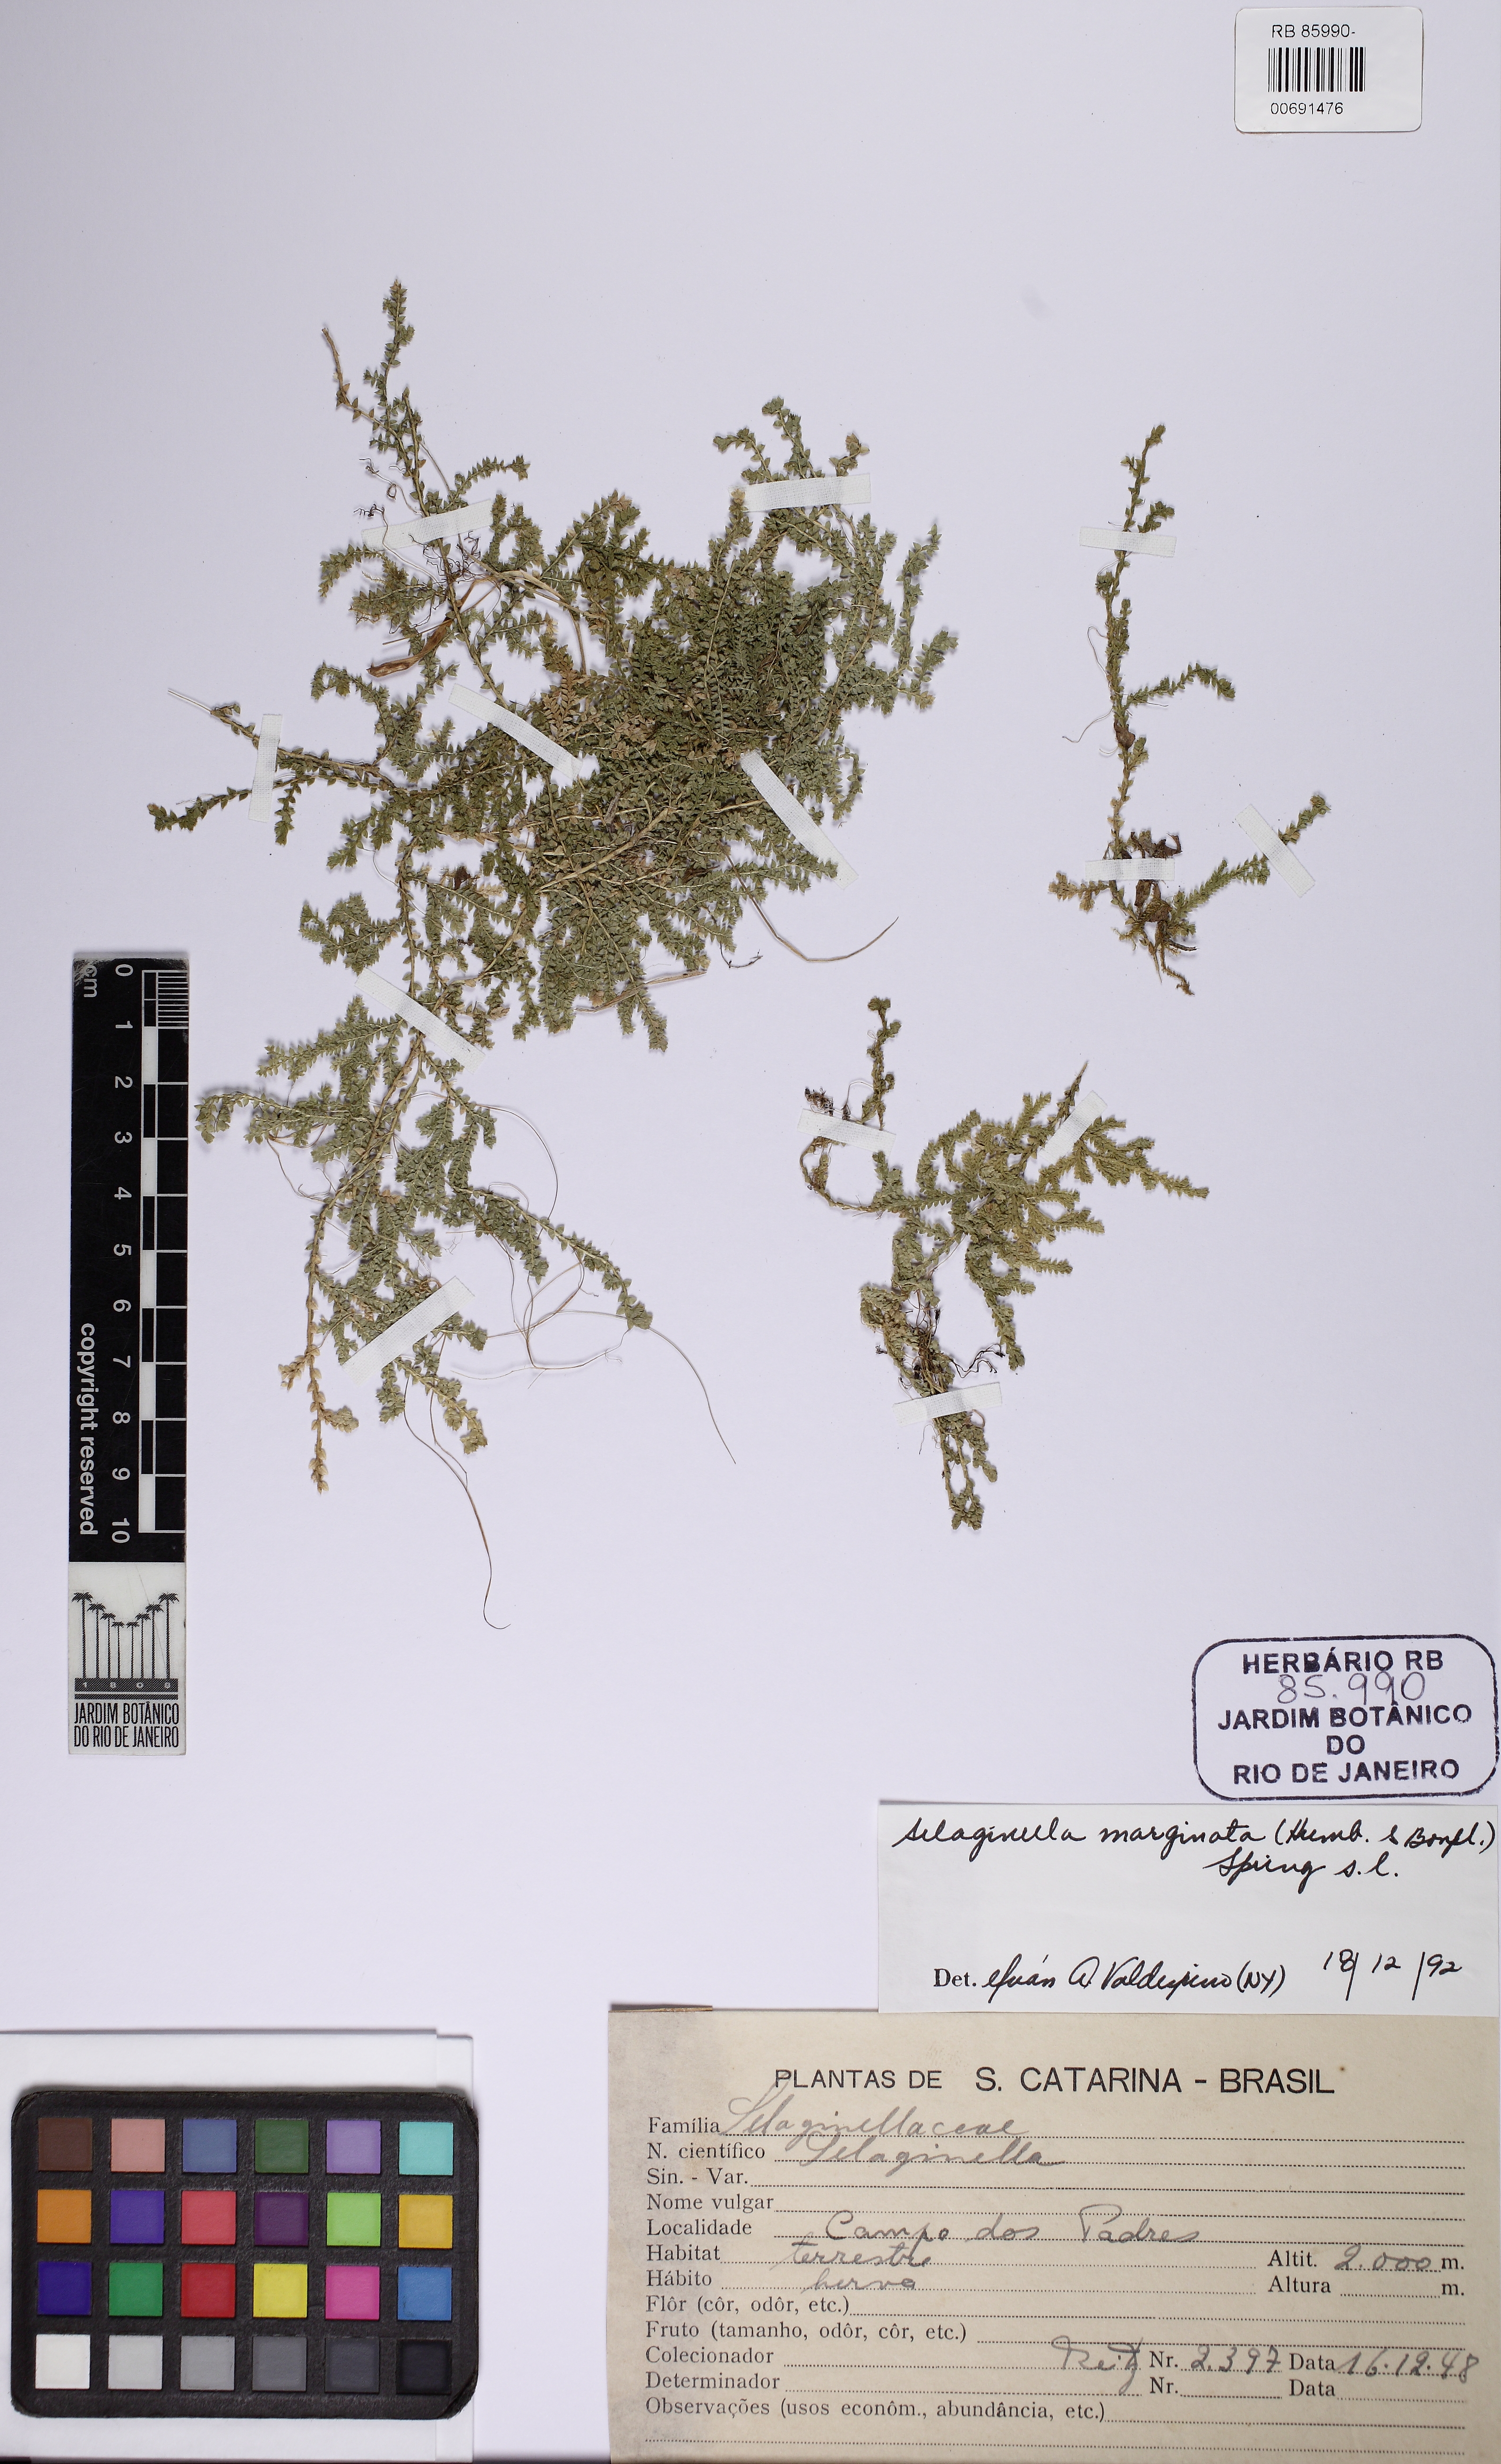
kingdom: Plantae
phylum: Tracheophyta
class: Lycopodiopsida
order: Selaginellales
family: Selaginellaceae
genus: Selaginella
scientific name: Selaginella marginata
